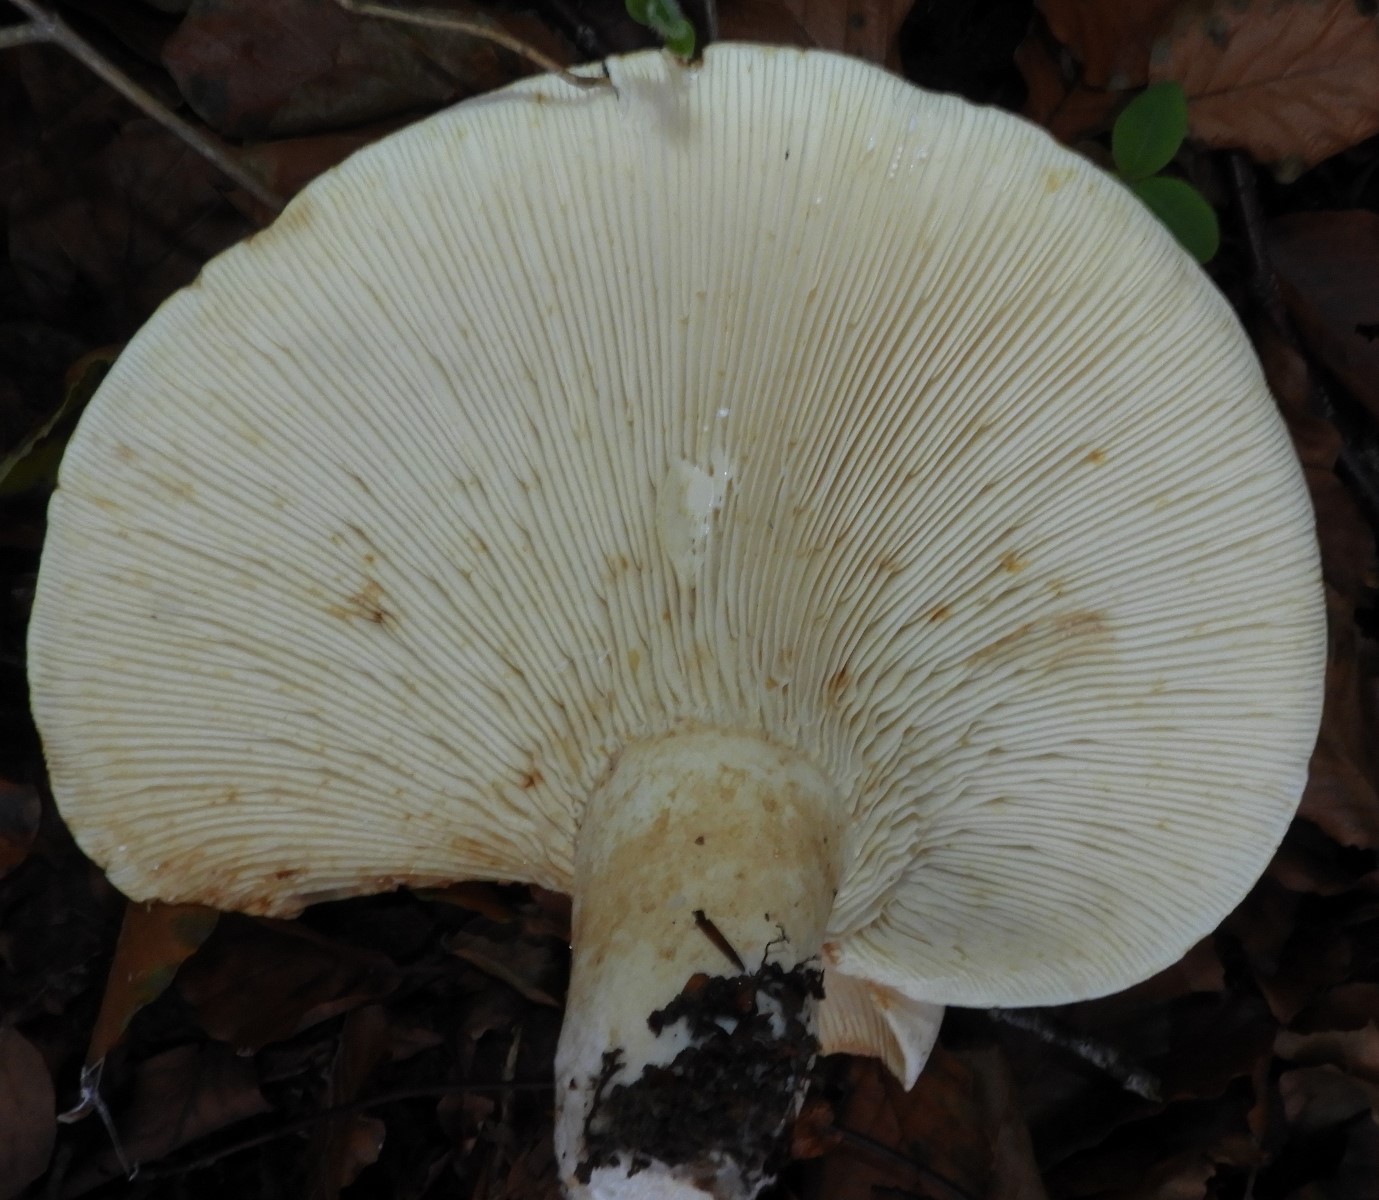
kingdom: Fungi
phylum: Basidiomycota
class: Agaricomycetes
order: Russulales
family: Russulaceae
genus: Lactifluus
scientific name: Lactifluus vellereus
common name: hvidfiltet mælkehat
